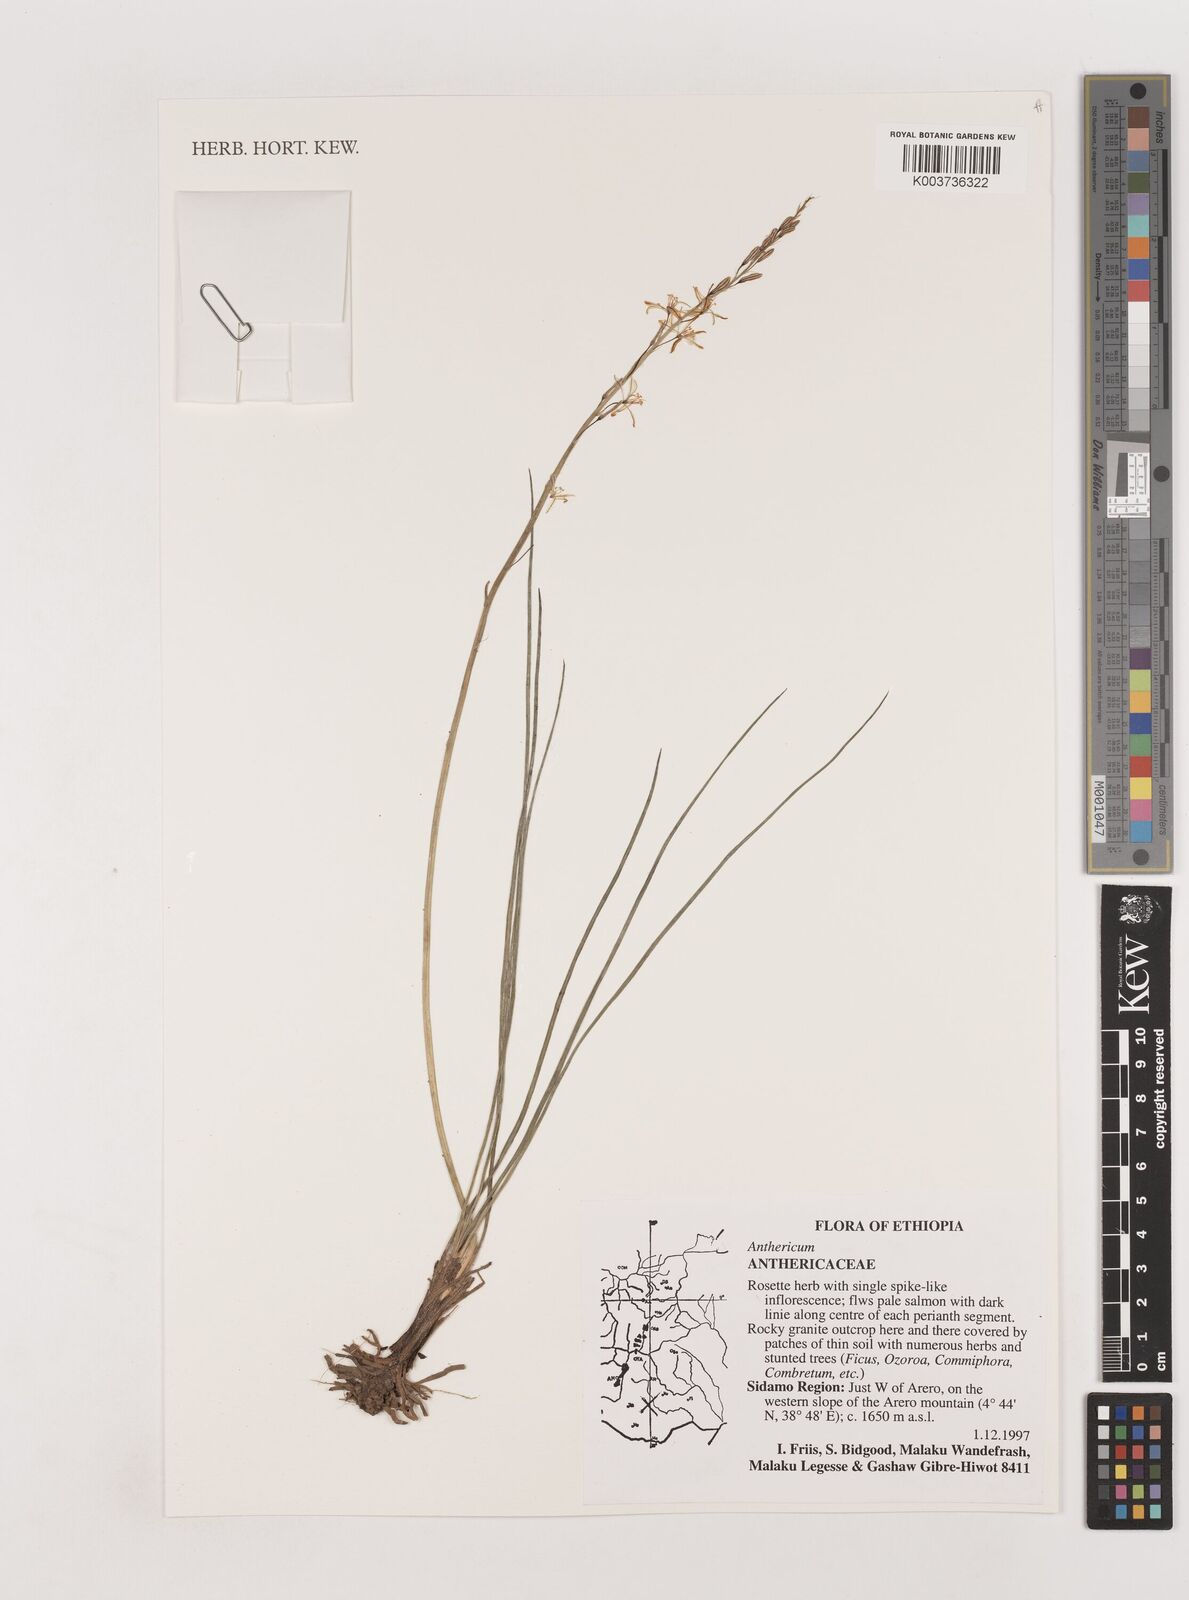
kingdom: Plantae
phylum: Tracheophyta
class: Liliopsida
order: Asparagales
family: Asparagaceae
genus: Anthericum
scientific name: Anthericum
